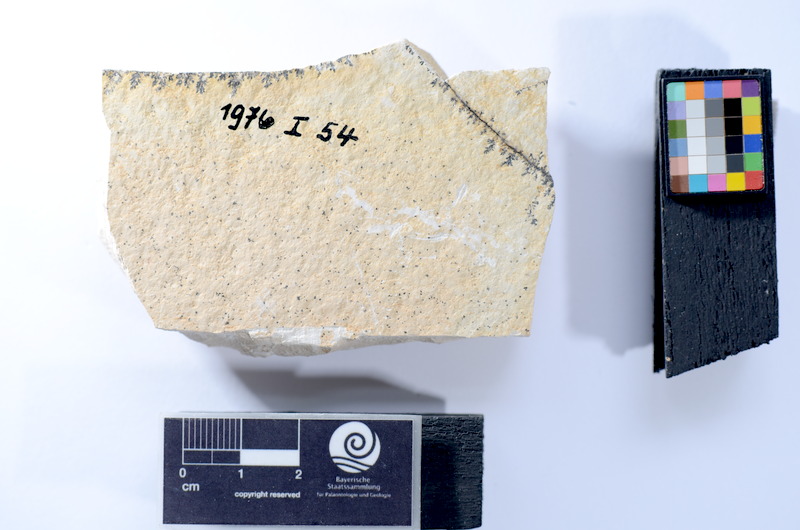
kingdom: Animalia
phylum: Chordata
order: Elopiformes
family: Anaethalionidae
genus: Anaethalion
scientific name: Anaethalion knorri
